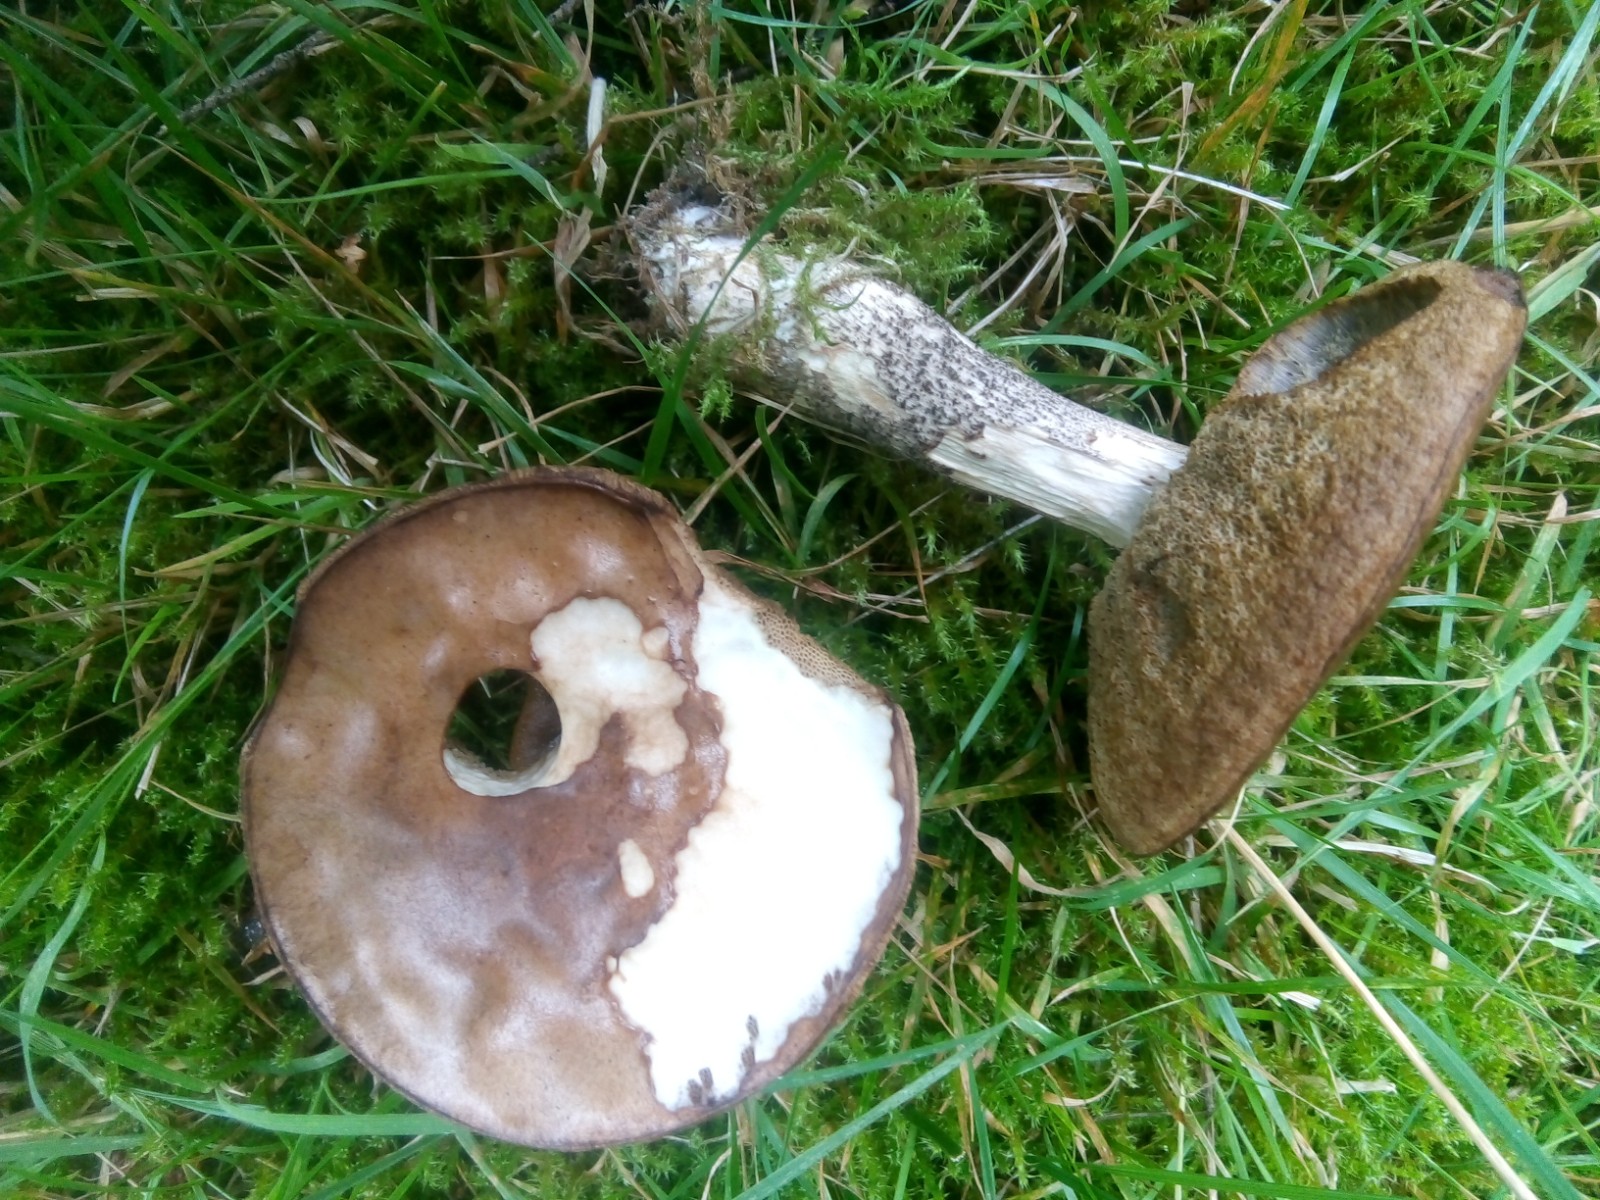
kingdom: Fungi
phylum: Basidiomycota
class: Agaricomycetes
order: Boletales
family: Boletaceae
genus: Leccinum
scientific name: Leccinum scabrum
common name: brun skælrørhat
